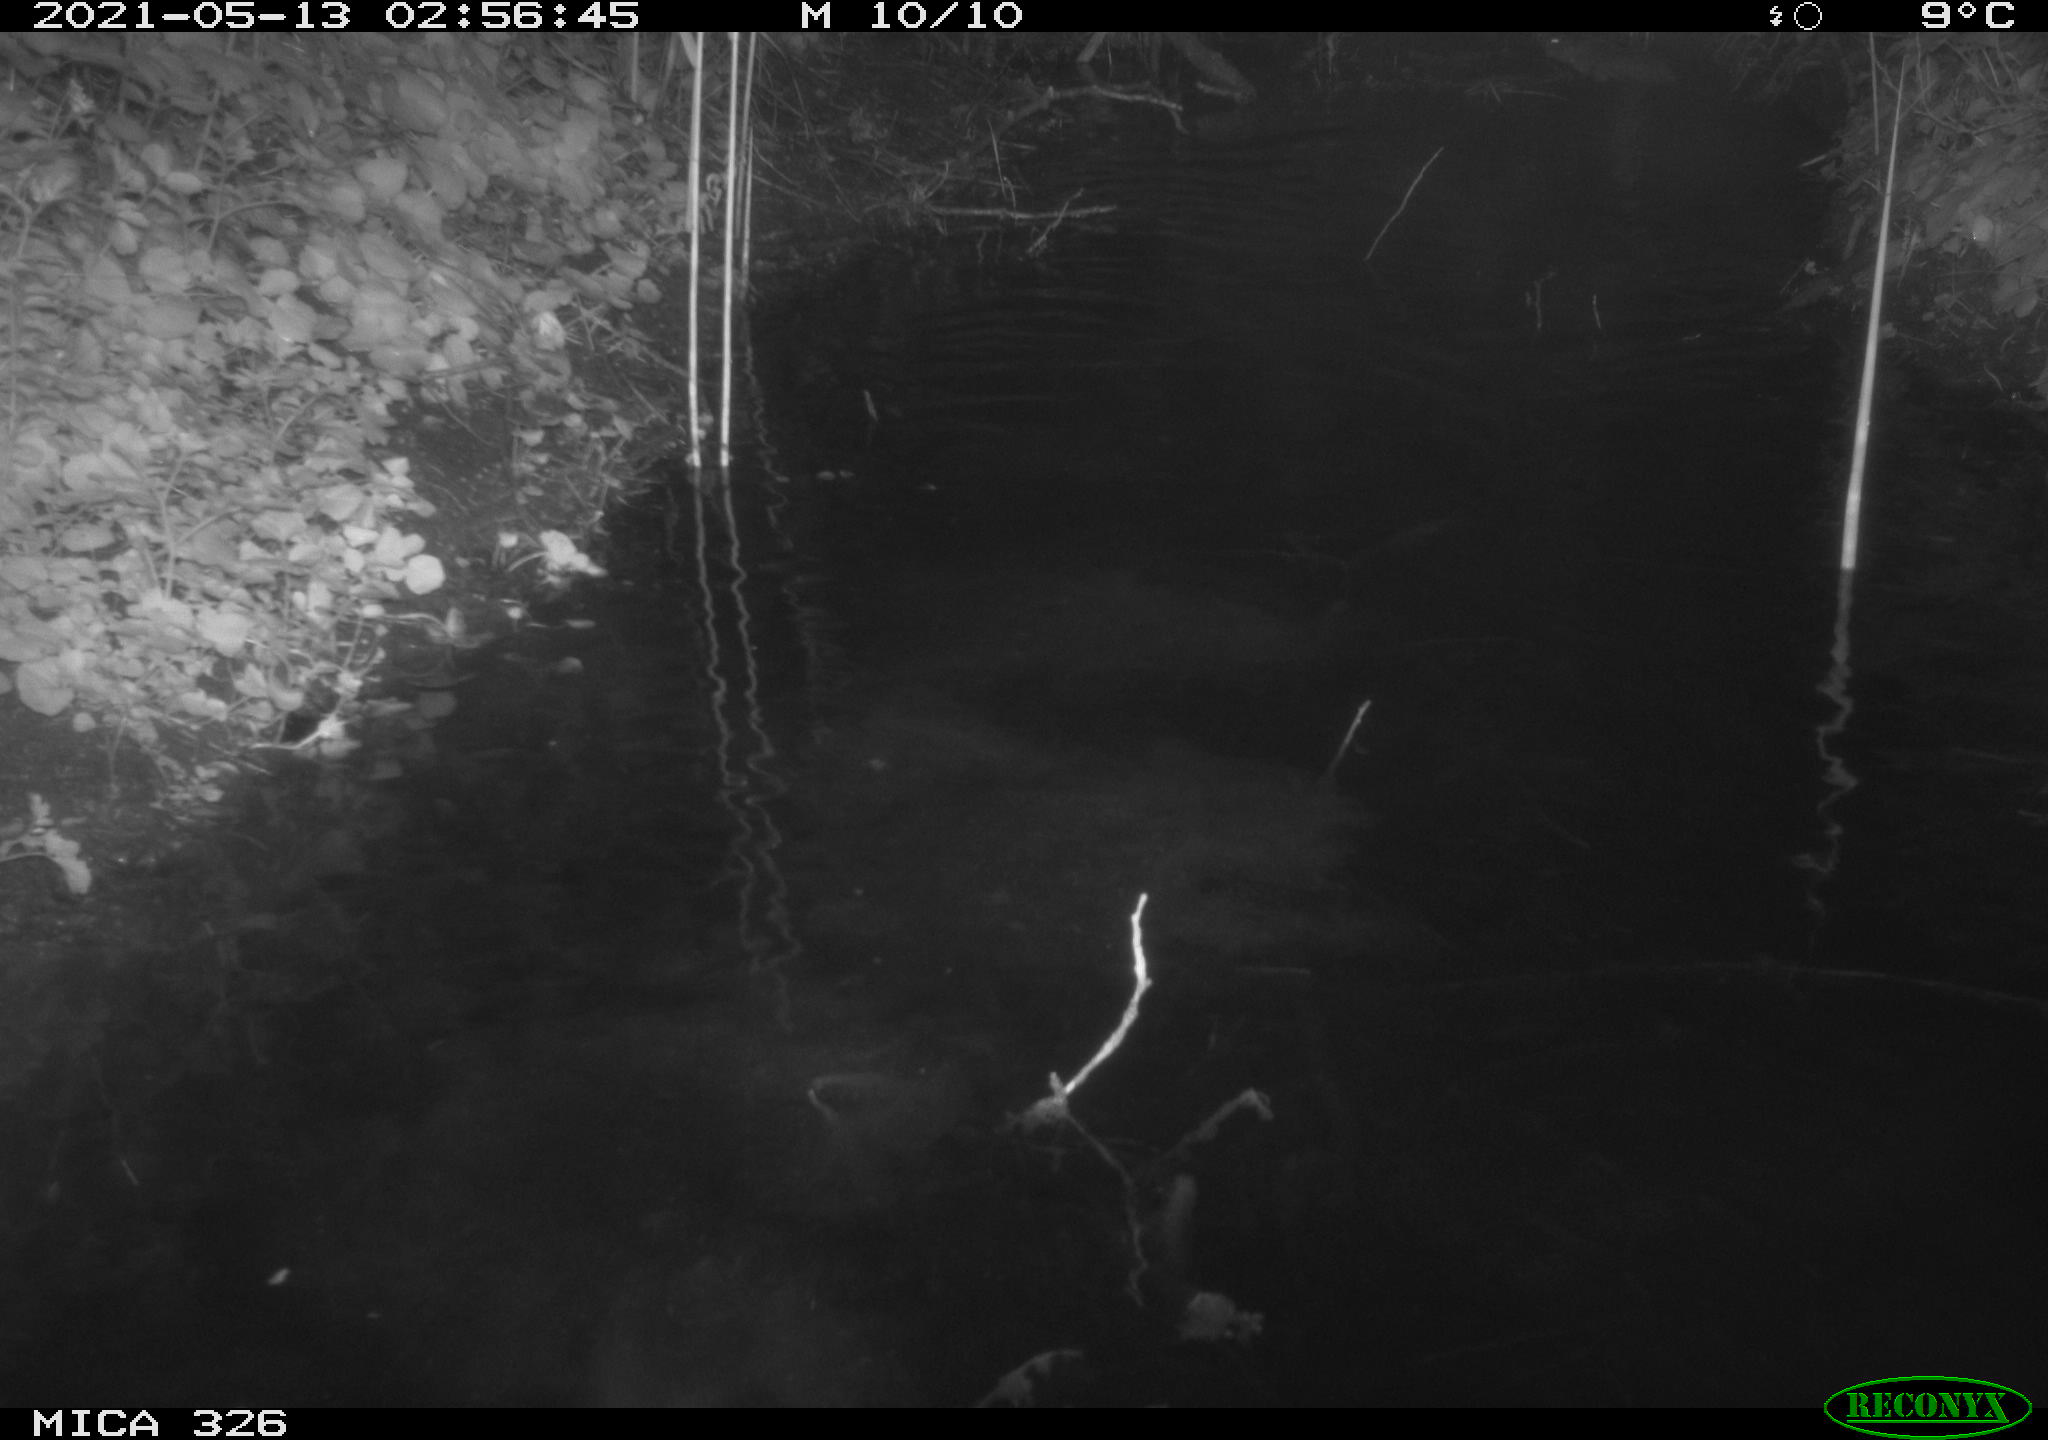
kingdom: Animalia
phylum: Chordata
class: Mammalia
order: Rodentia
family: Cricetidae
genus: Ondatra
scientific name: Ondatra zibethicus
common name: Muskrat
